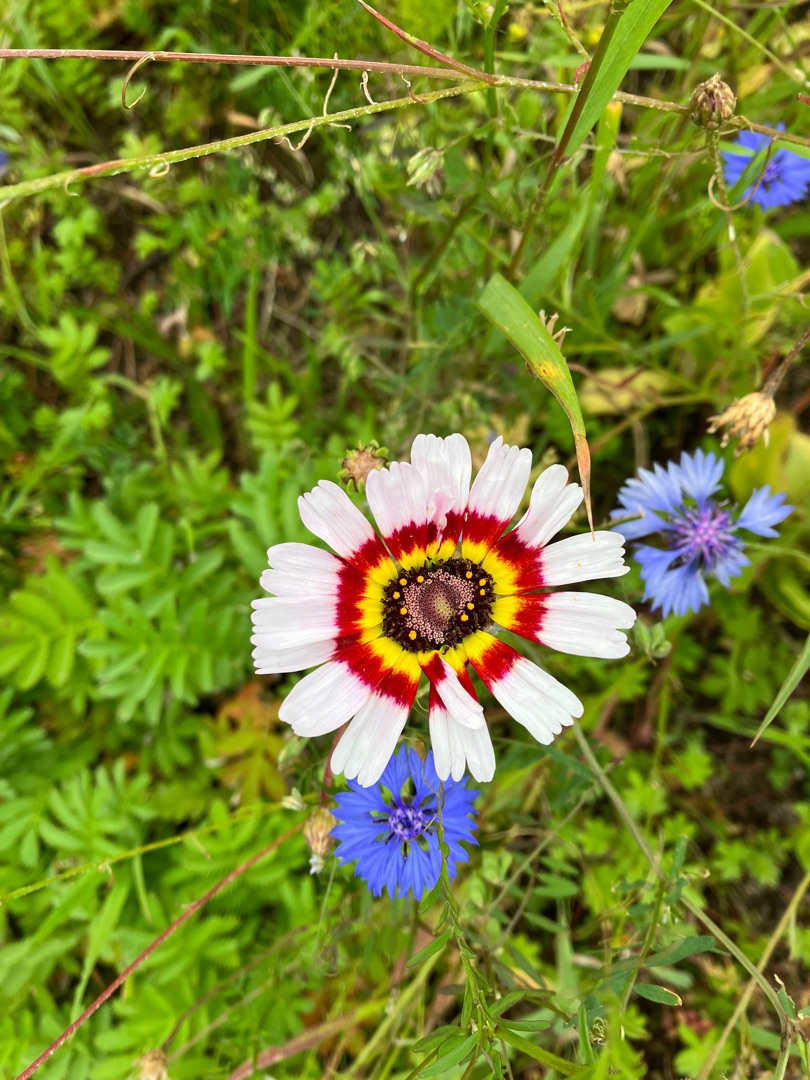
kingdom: Plantae
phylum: Tracheophyta
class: Magnoliopsida
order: Asterales
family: Asteraceae
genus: Glebionis
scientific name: Glebionis carinata
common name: Flerfarvet okseøje
